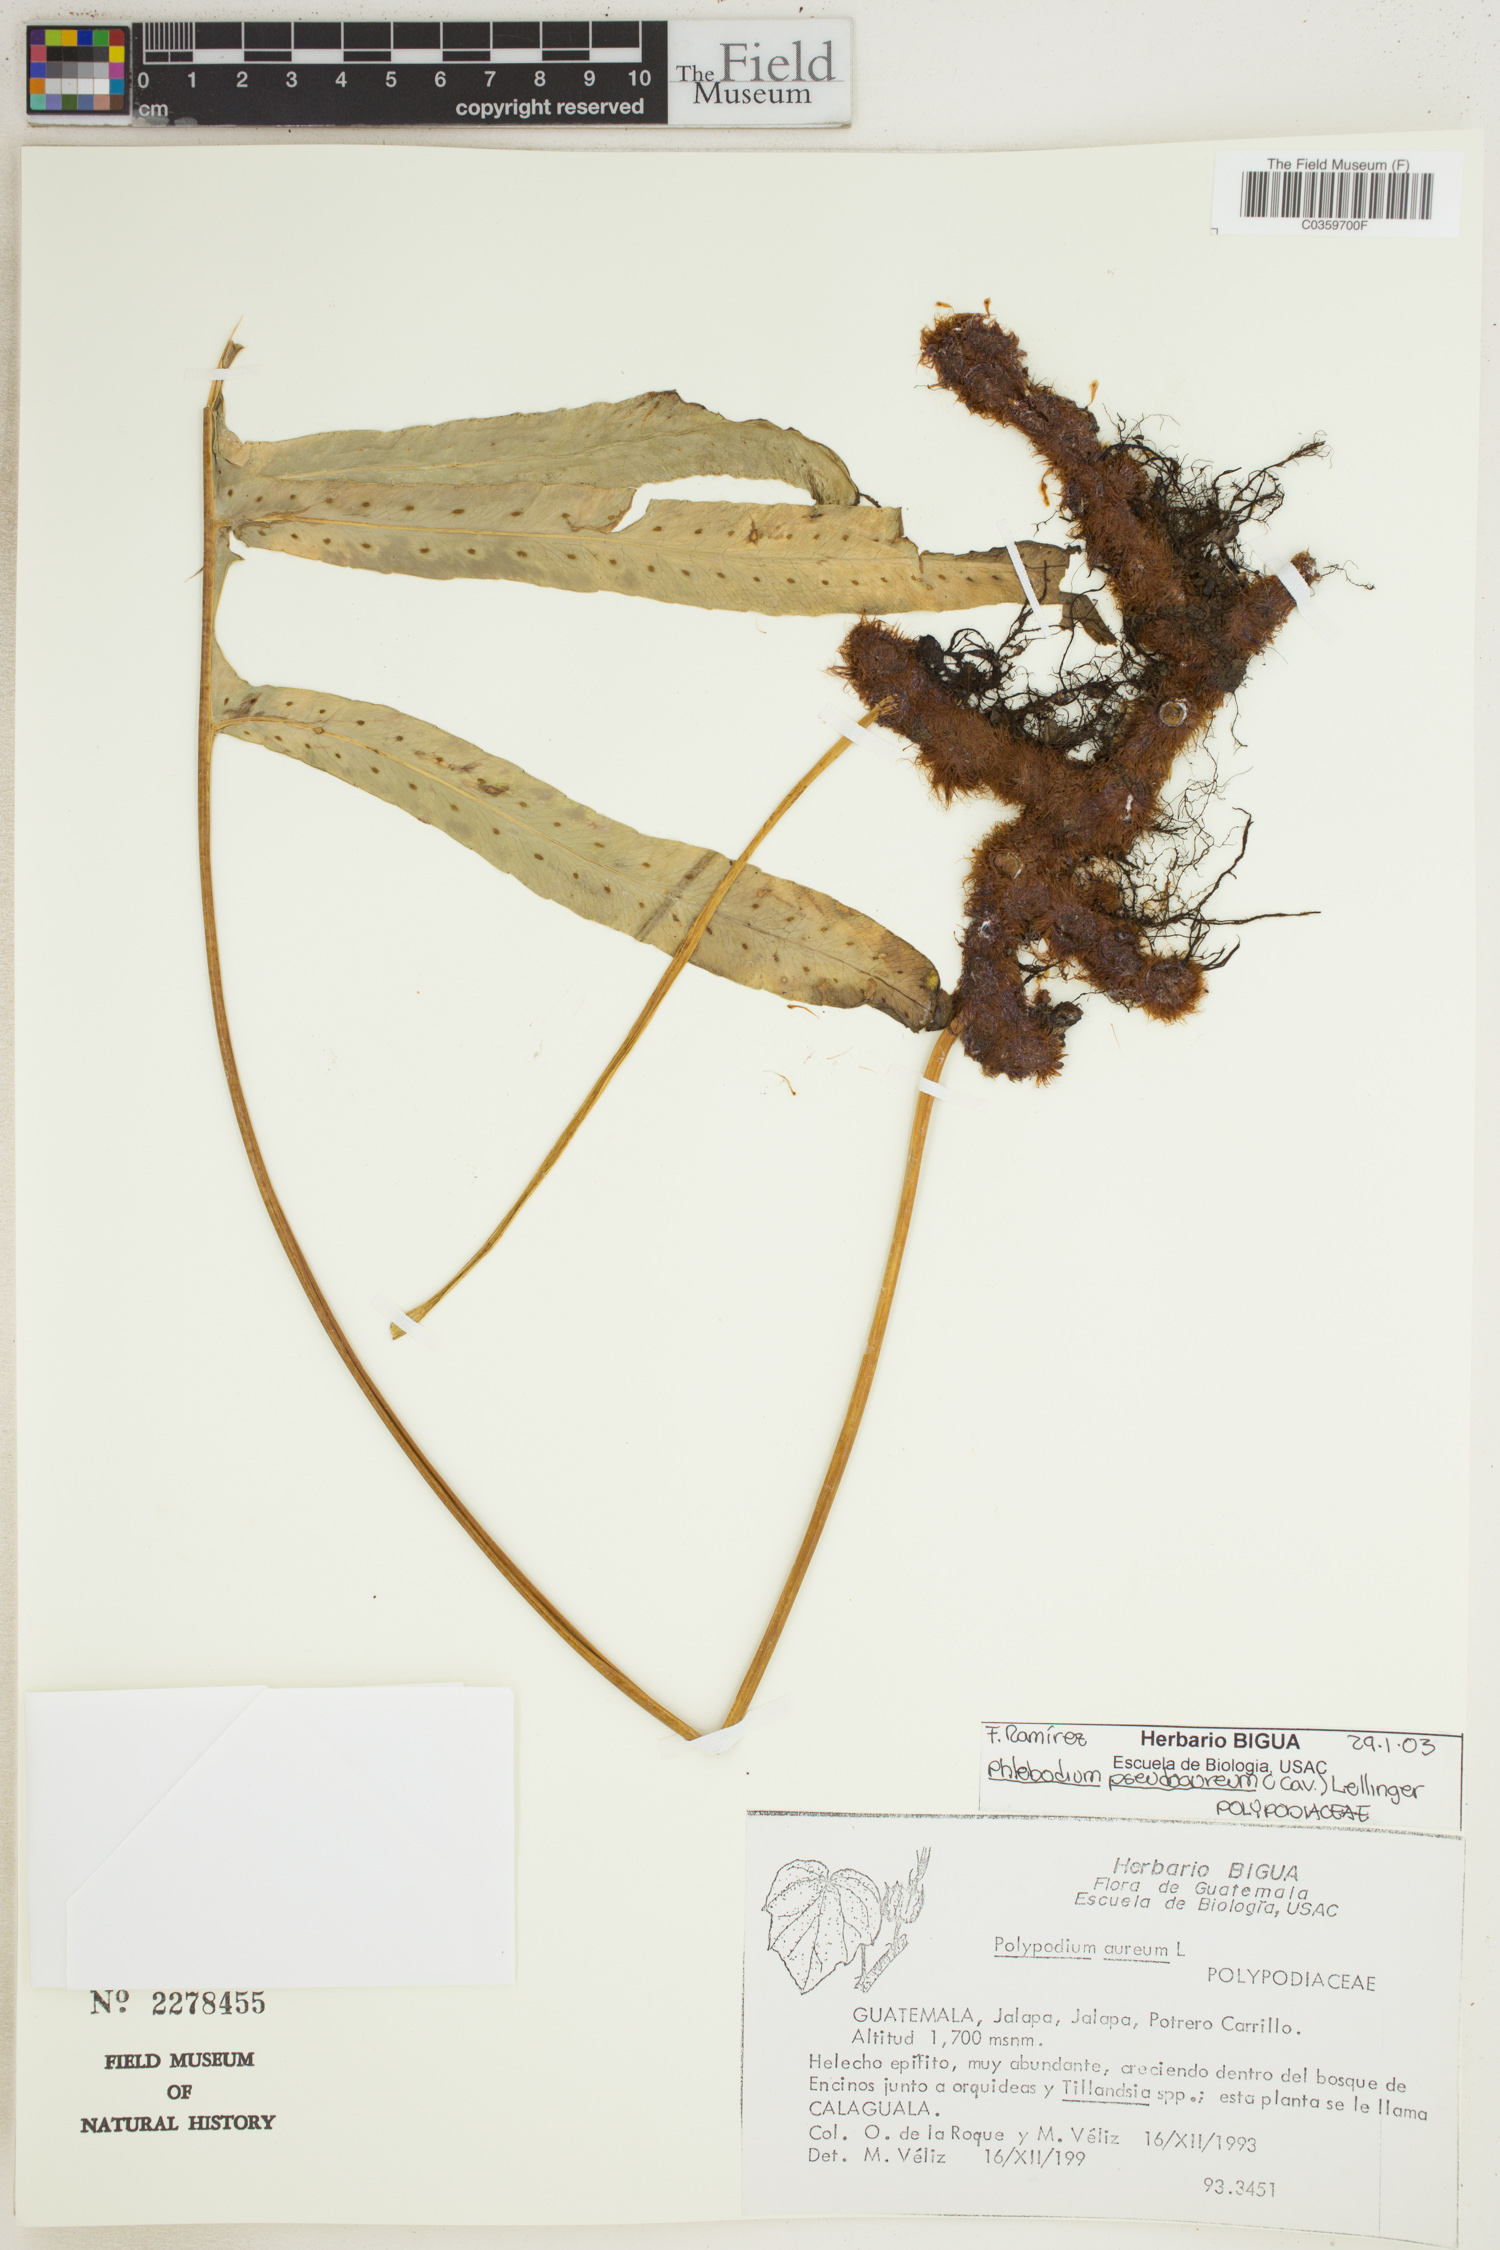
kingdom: Plantae
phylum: Tracheophyta
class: Polypodiopsida
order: Polypodiales
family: Polypodiaceae
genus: Phlebodium
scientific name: Phlebodium pseudoaureum
